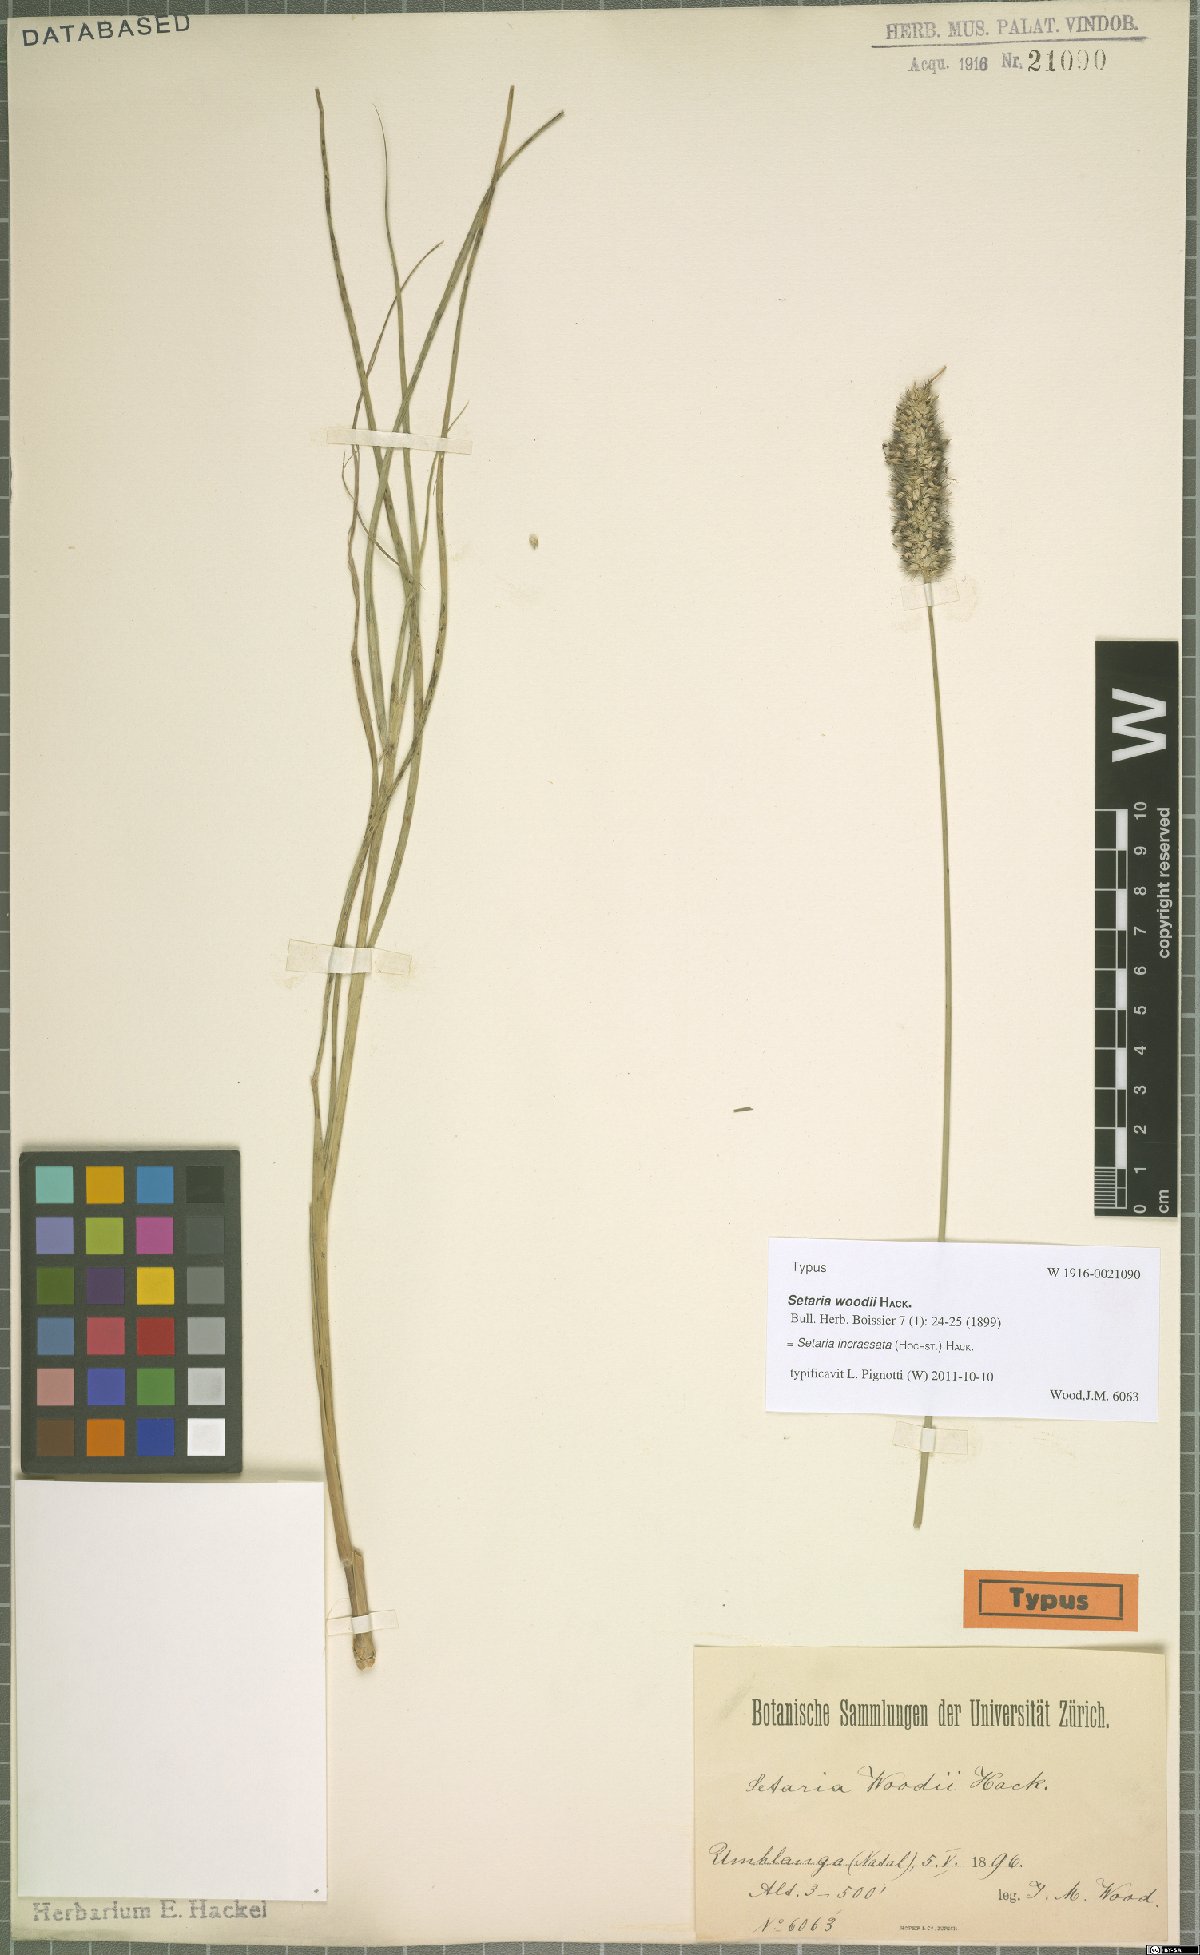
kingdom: Plantae
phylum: Tracheophyta
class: Liliopsida
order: Poales
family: Poaceae
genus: Setaria
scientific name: Setaria incrassata
